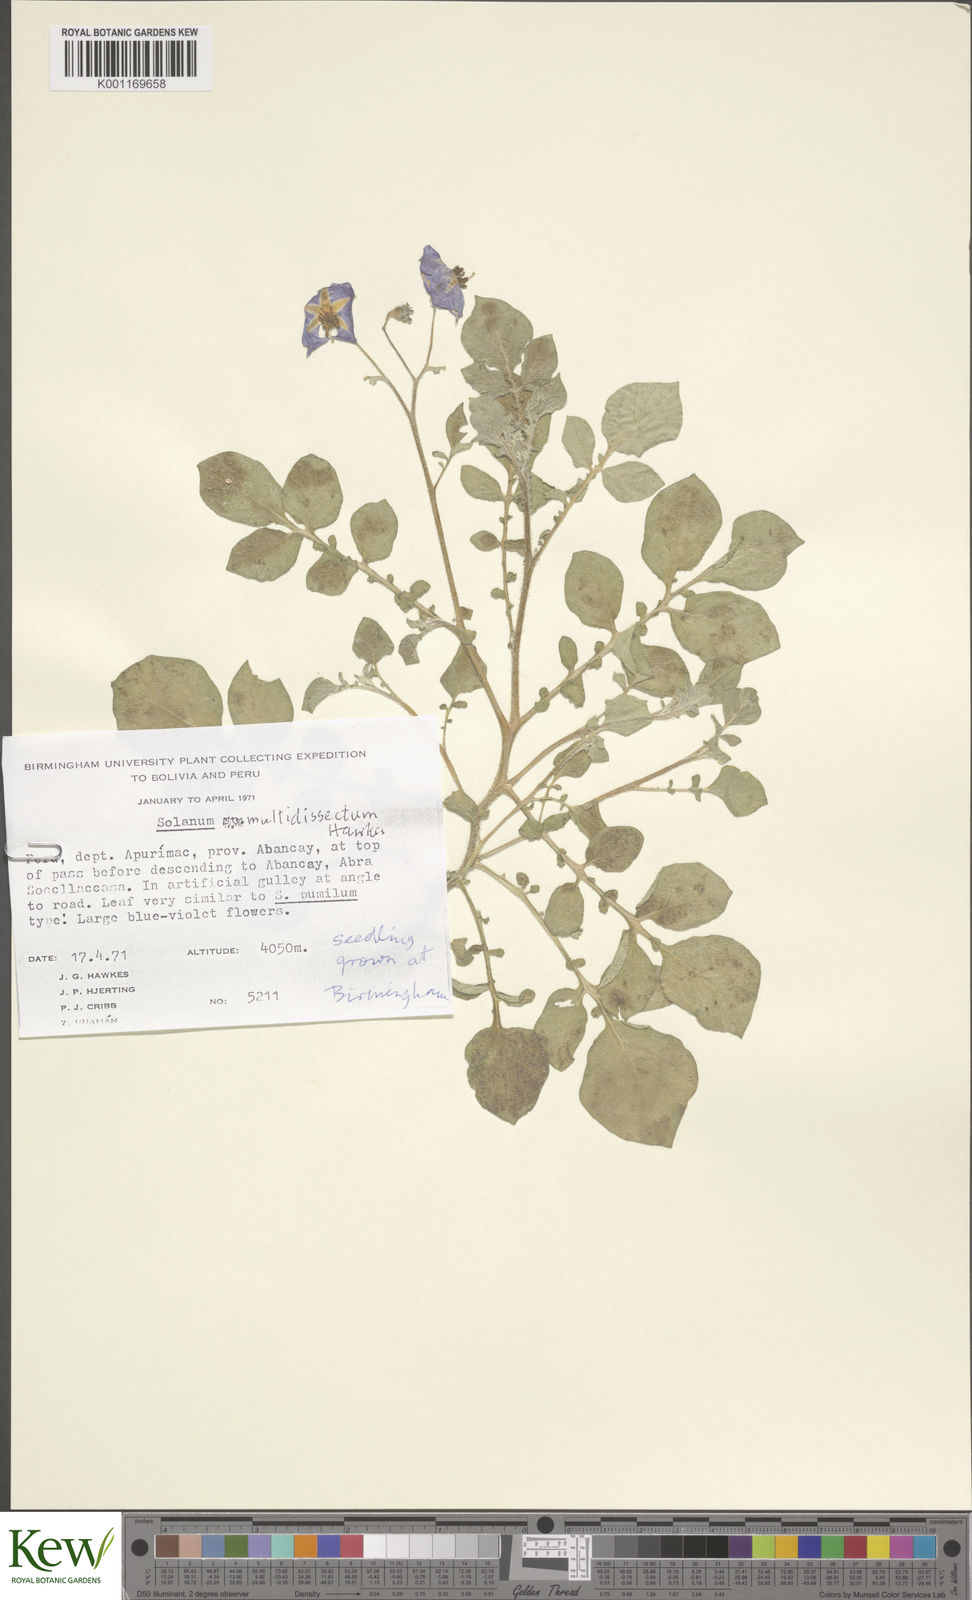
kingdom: Plantae
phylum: Tracheophyta
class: Magnoliopsida
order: Solanales
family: Solanaceae
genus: Solanum
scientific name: Solanum candolleanum
